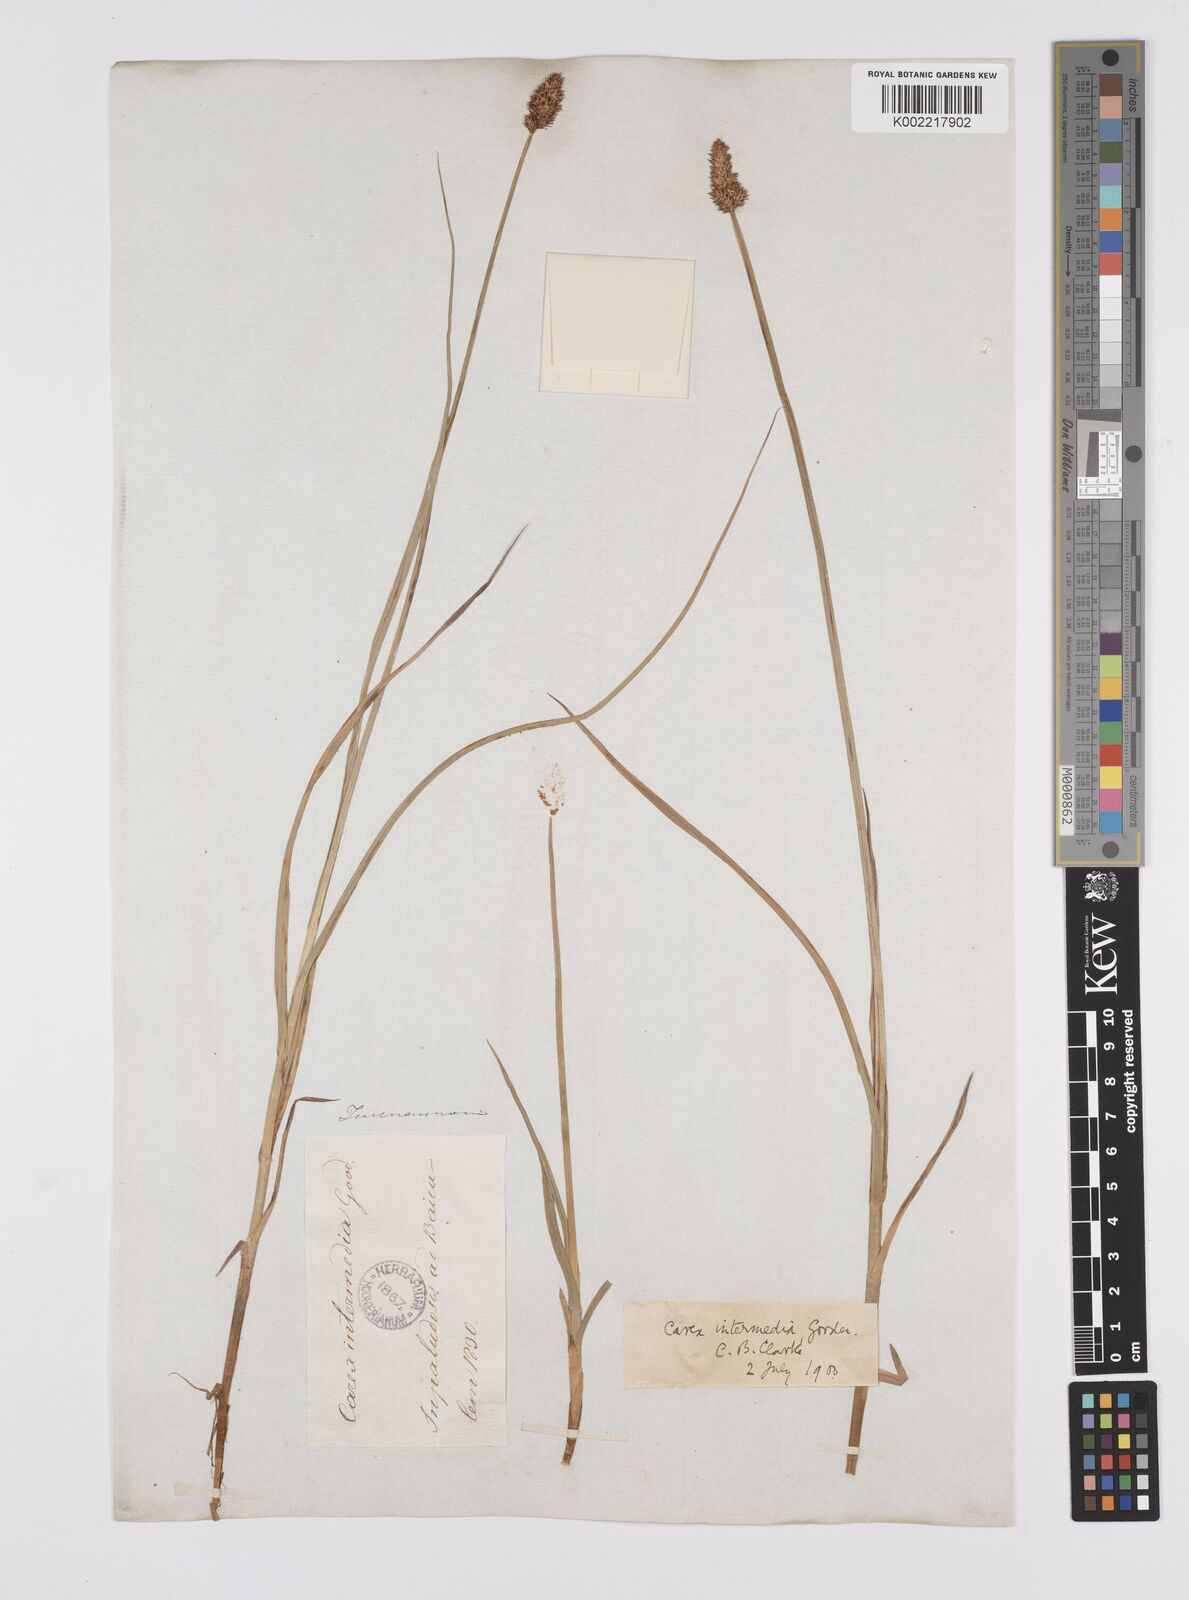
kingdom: Plantae
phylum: Tracheophyta
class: Liliopsida
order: Poales
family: Cyperaceae
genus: Carex
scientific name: Carex disticha
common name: Brown sedge
